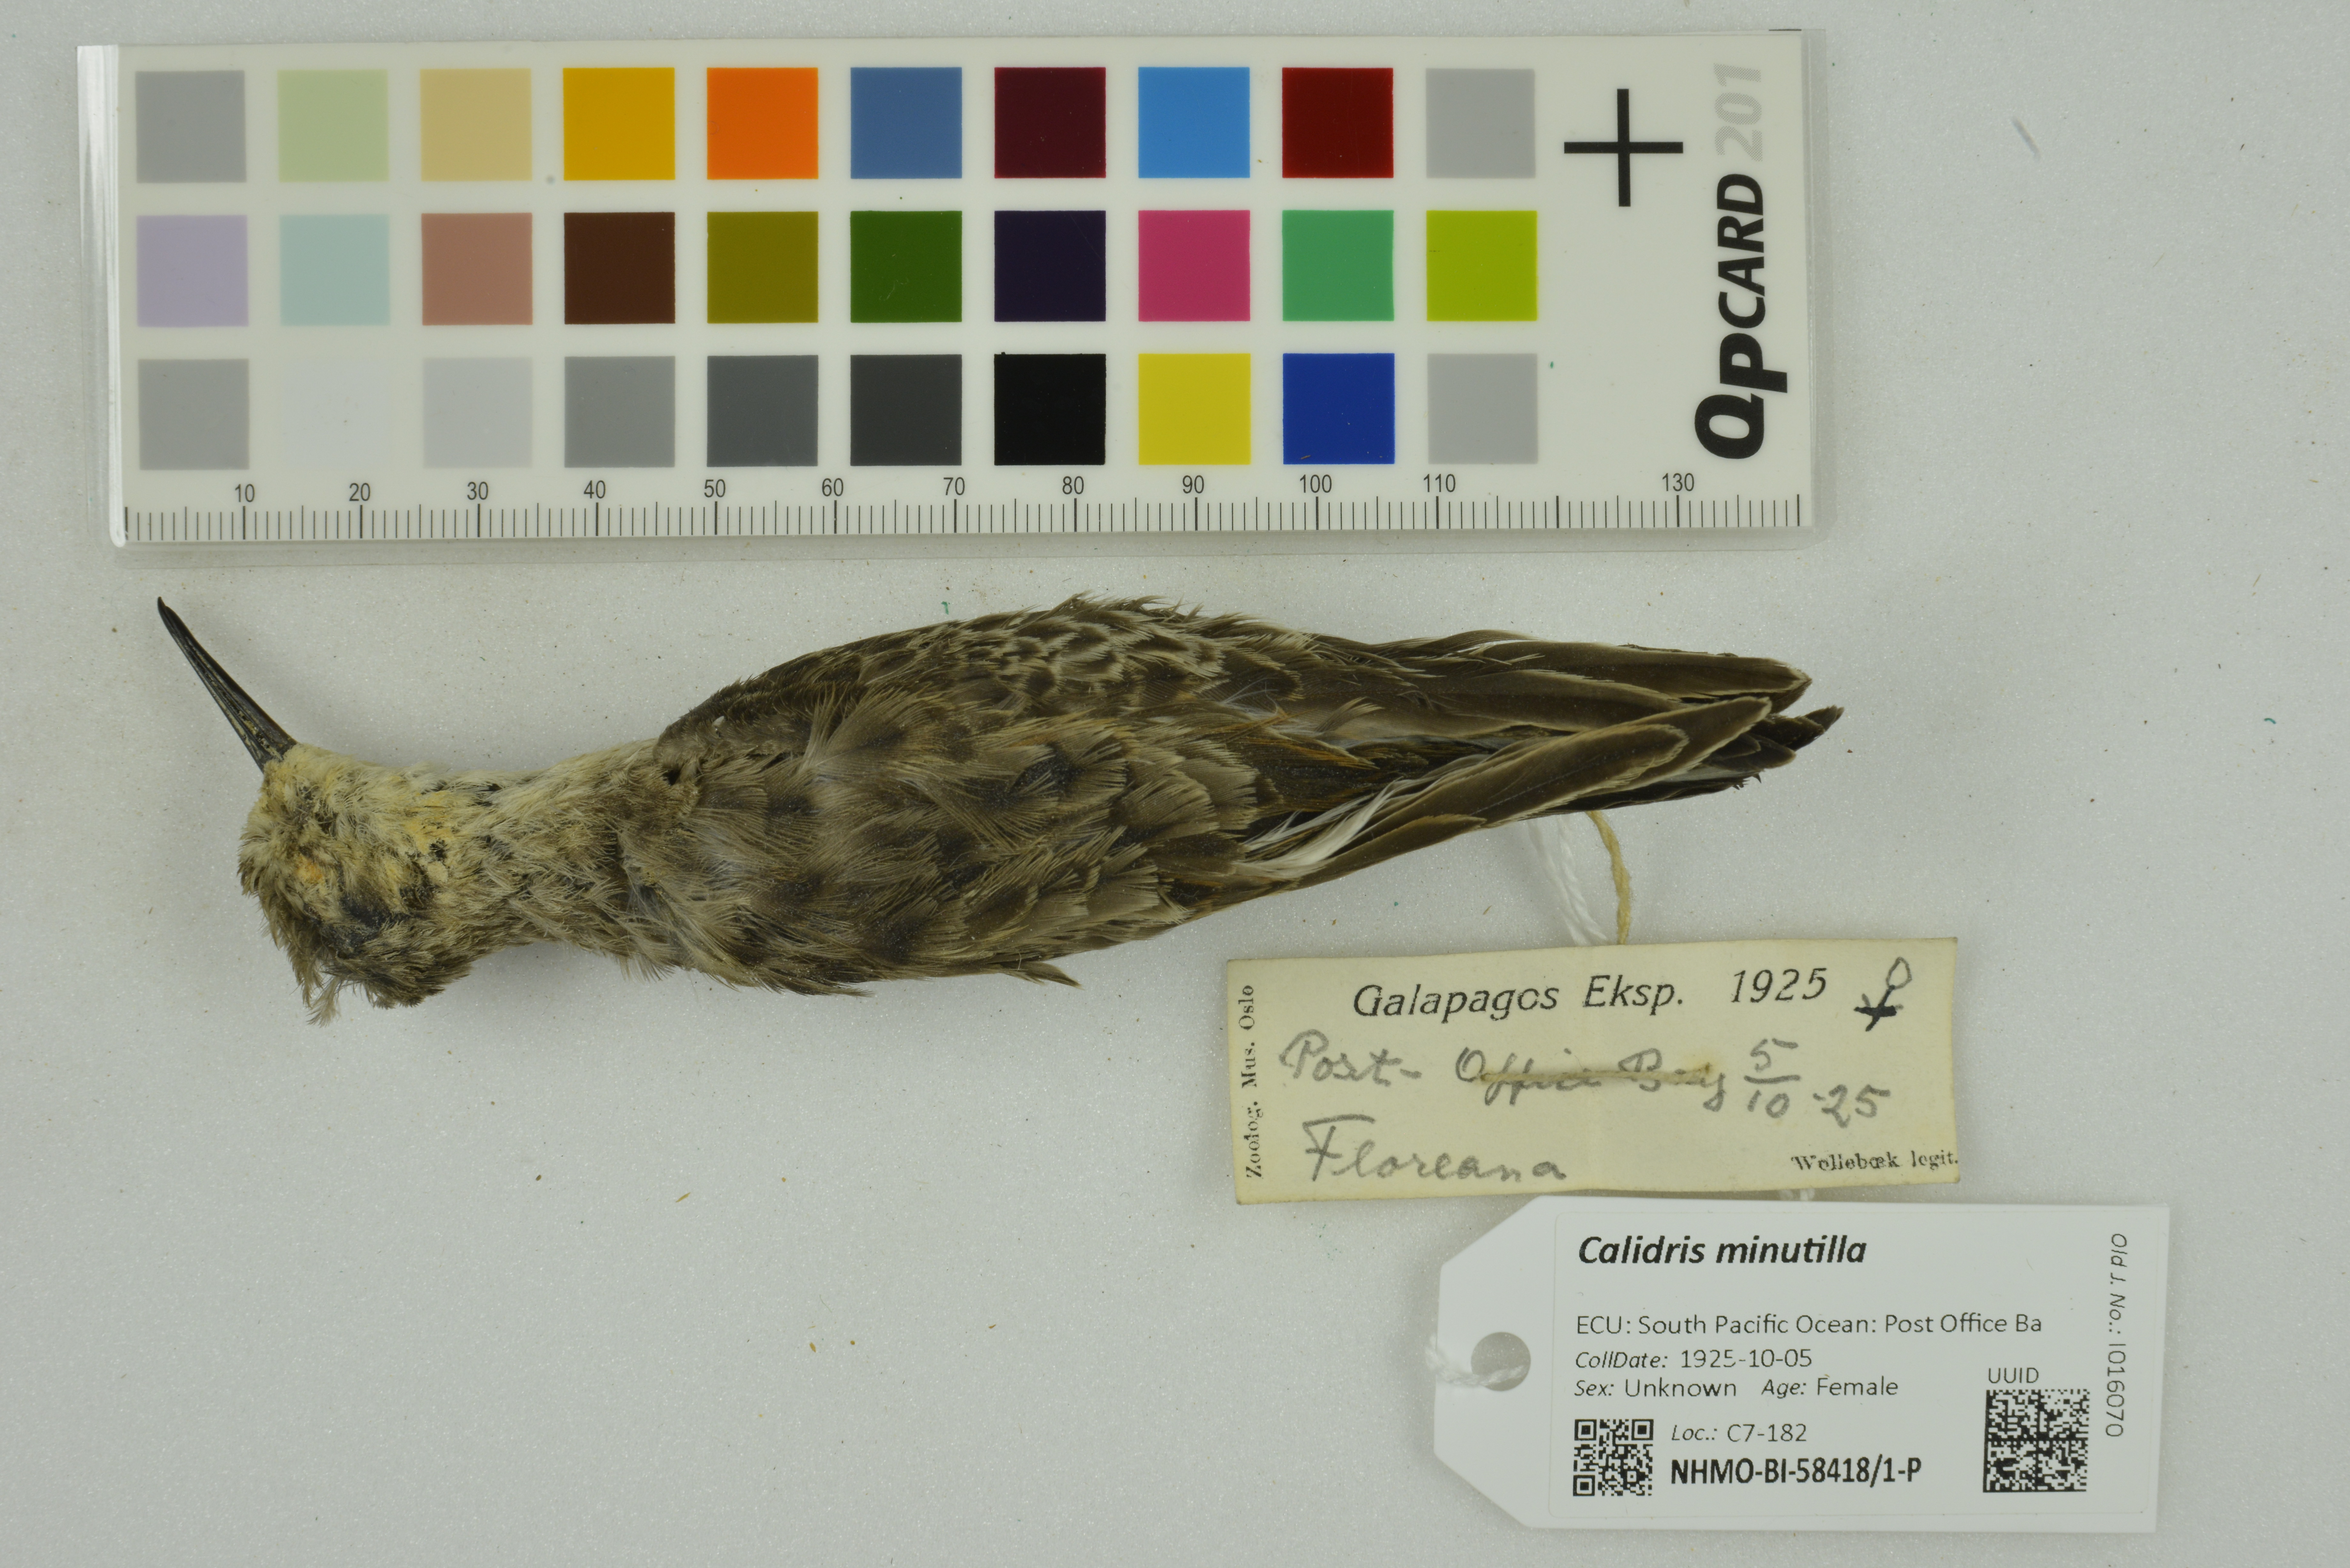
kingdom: Animalia
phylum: Chordata
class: Aves
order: Charadriiformes
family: Scolopacidae
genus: Calidris
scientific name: Calidris minutilla
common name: Least sandpiper
